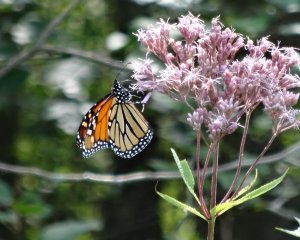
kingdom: Animalia
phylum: Arthropoda
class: Insecta
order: Lepidoptera
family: Nymphalidae
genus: Danaus
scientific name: Danaus plexippus
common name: Monarch
